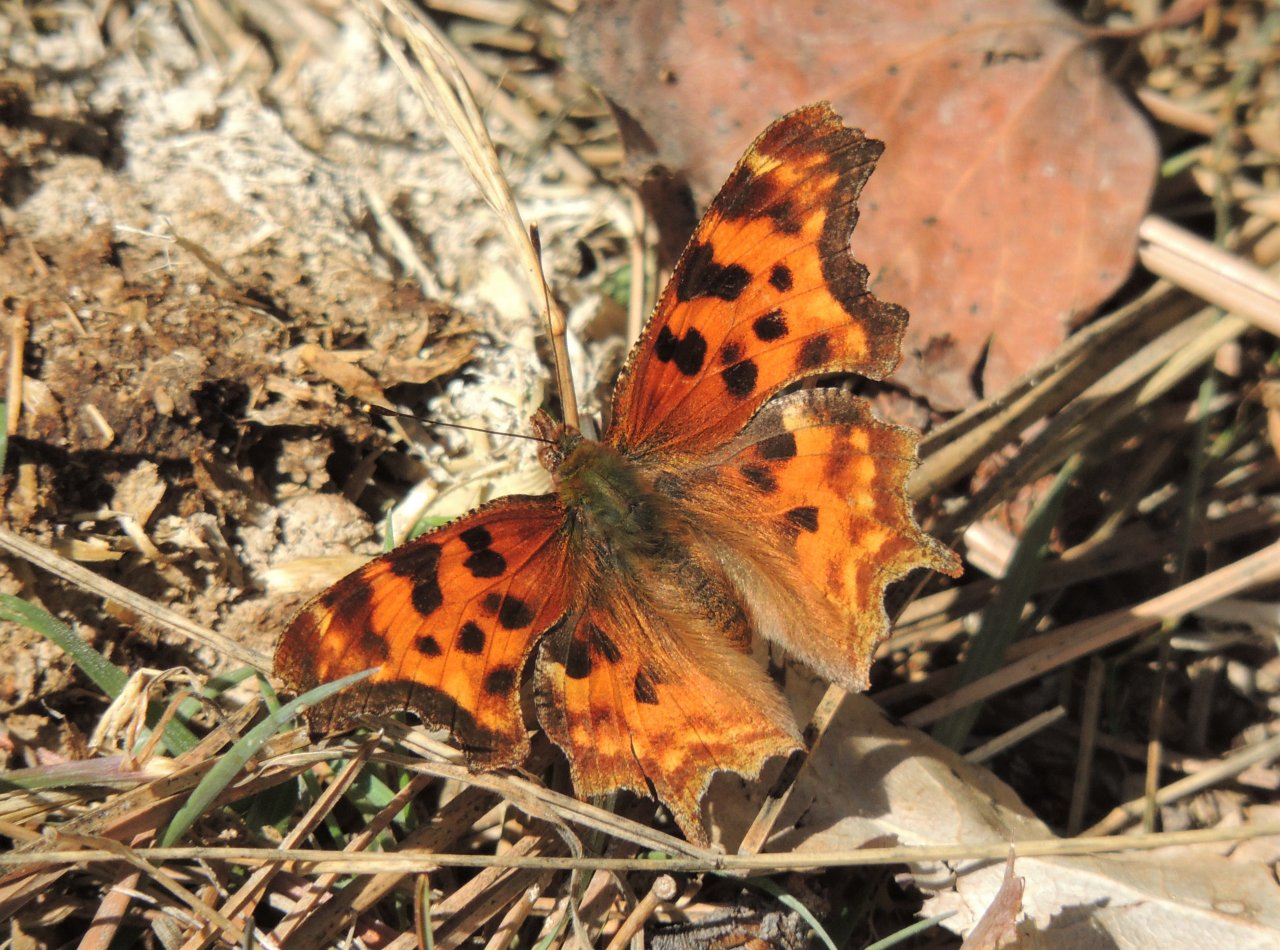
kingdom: Animalia
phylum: Arthropoda
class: Insecta
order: Lepidoptera
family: Nymphalidae
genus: Polygonia
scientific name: Polygonia satyrus
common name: Satyr Comma
